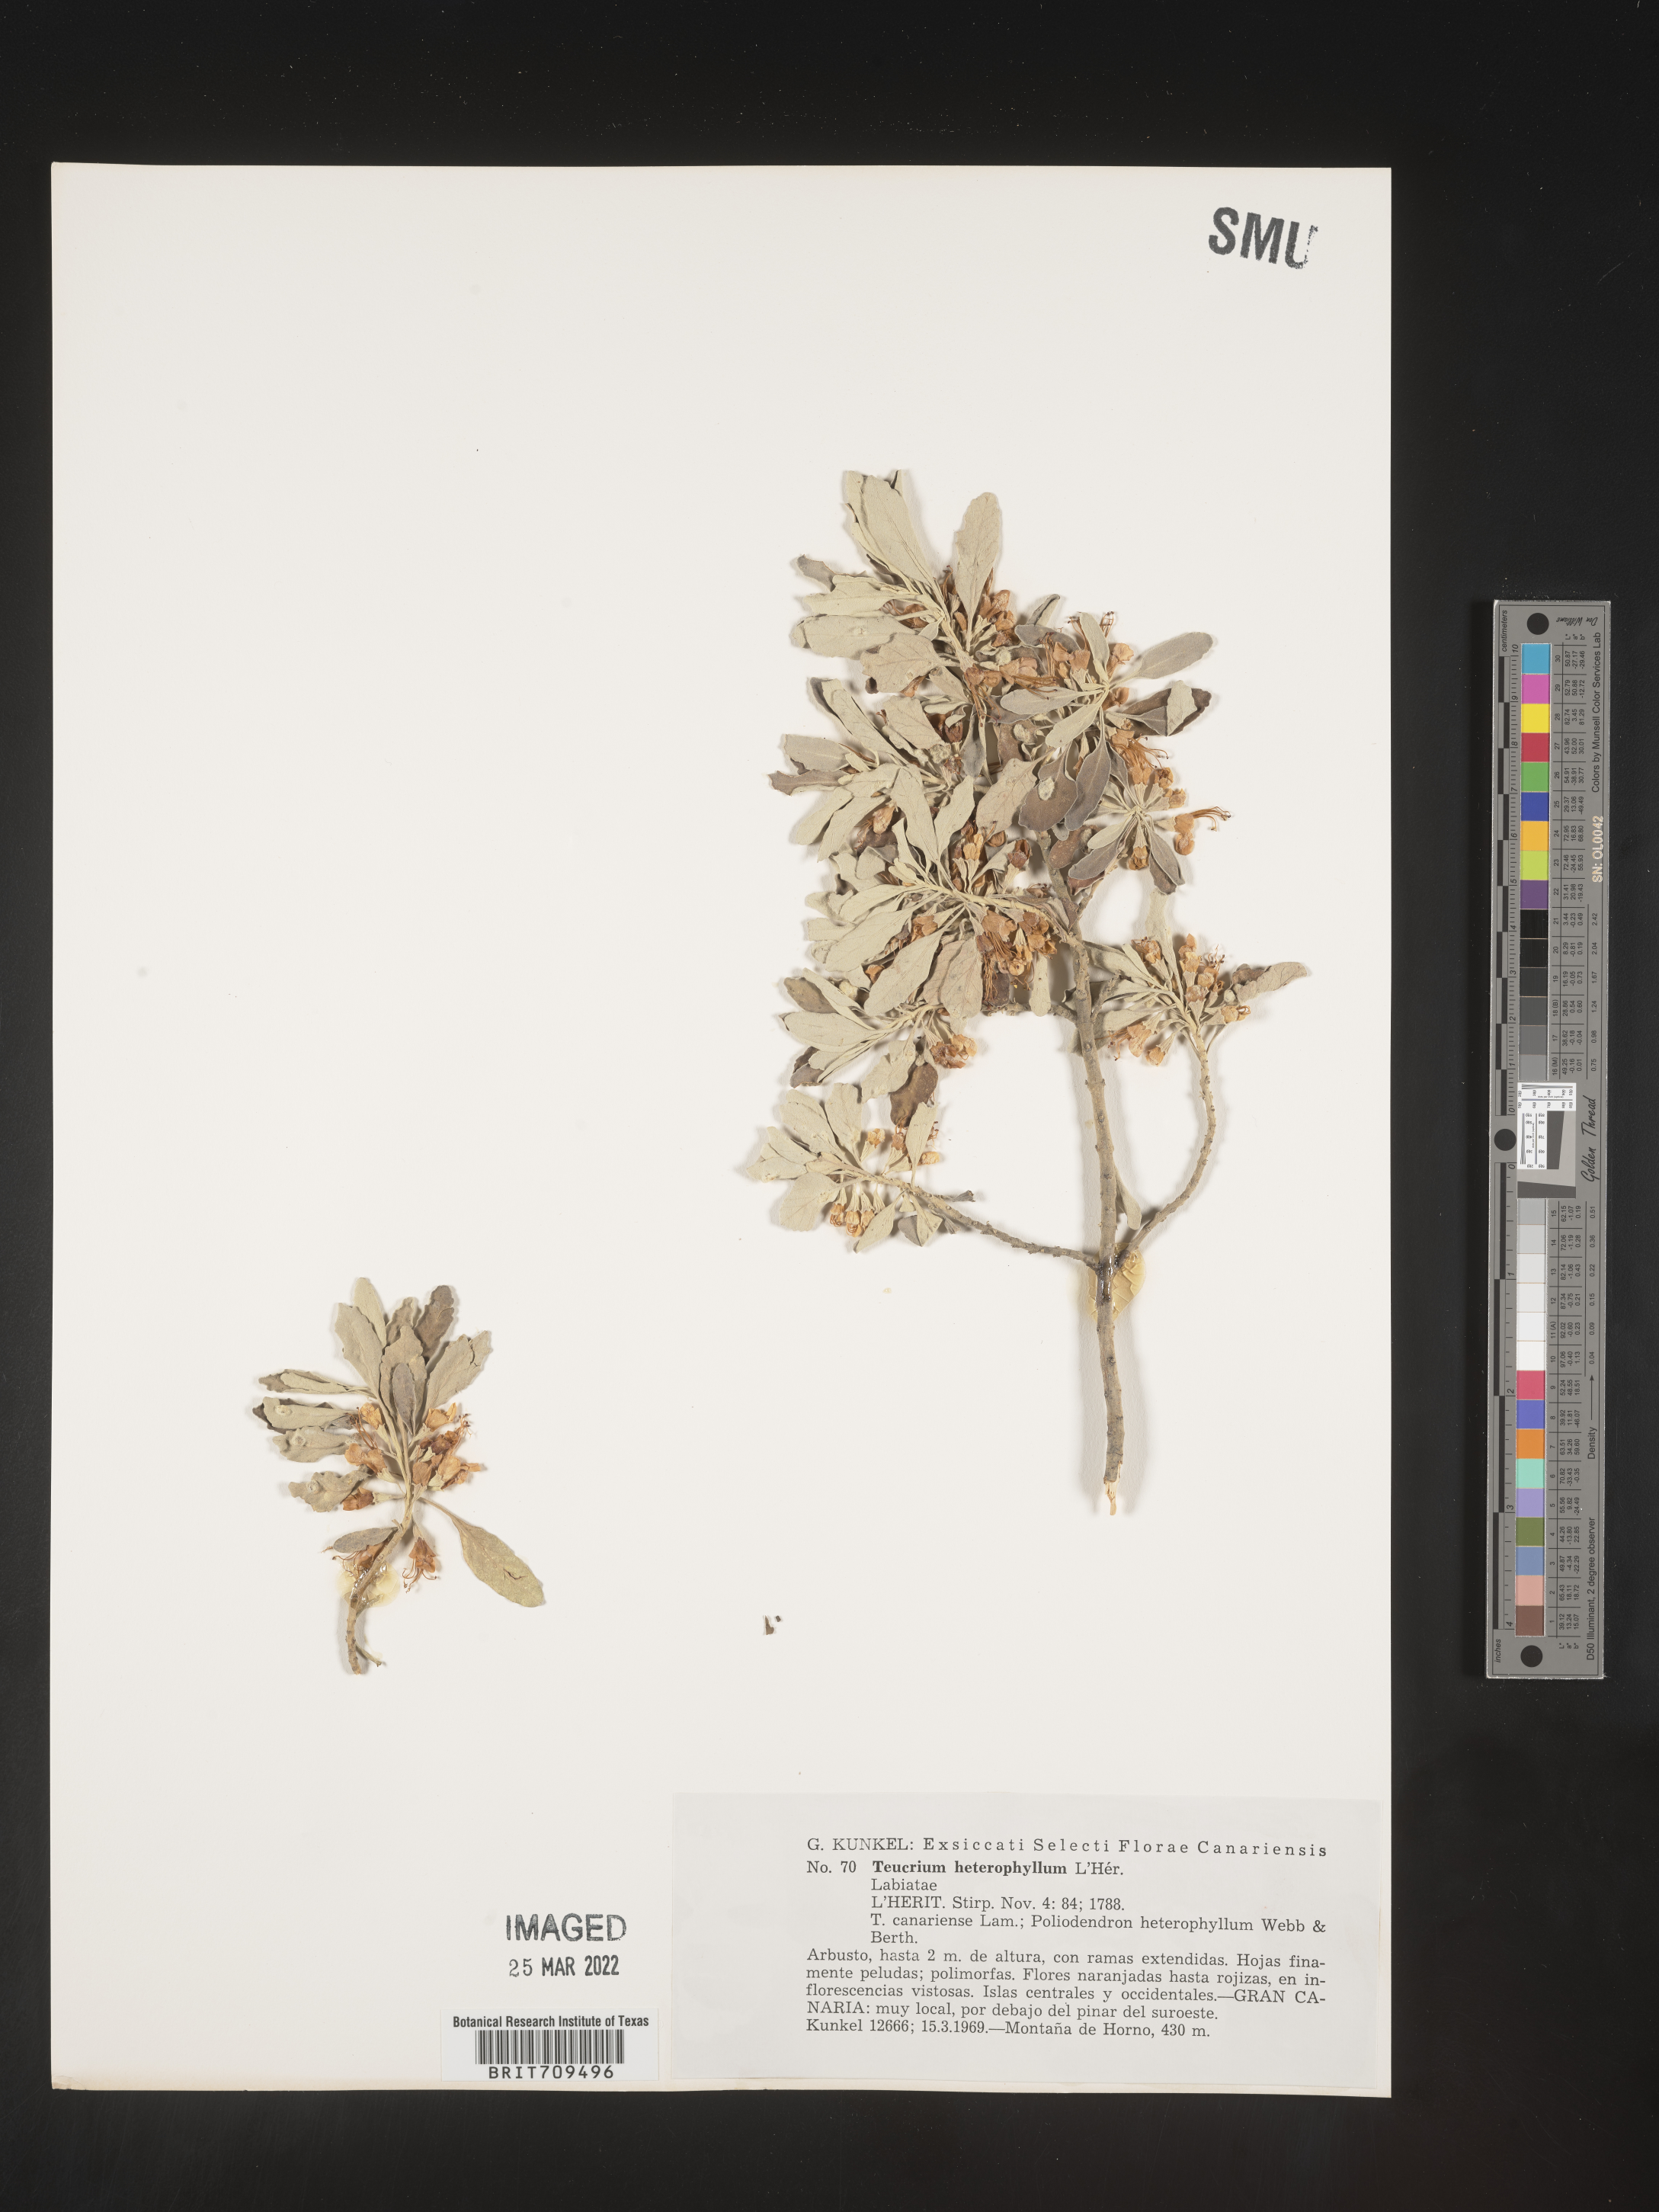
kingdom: Plantae
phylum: Tracheophyta
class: Magnoliopsida
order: Lamiales
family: Lamiaceae
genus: Teucrium
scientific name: Teucrium
